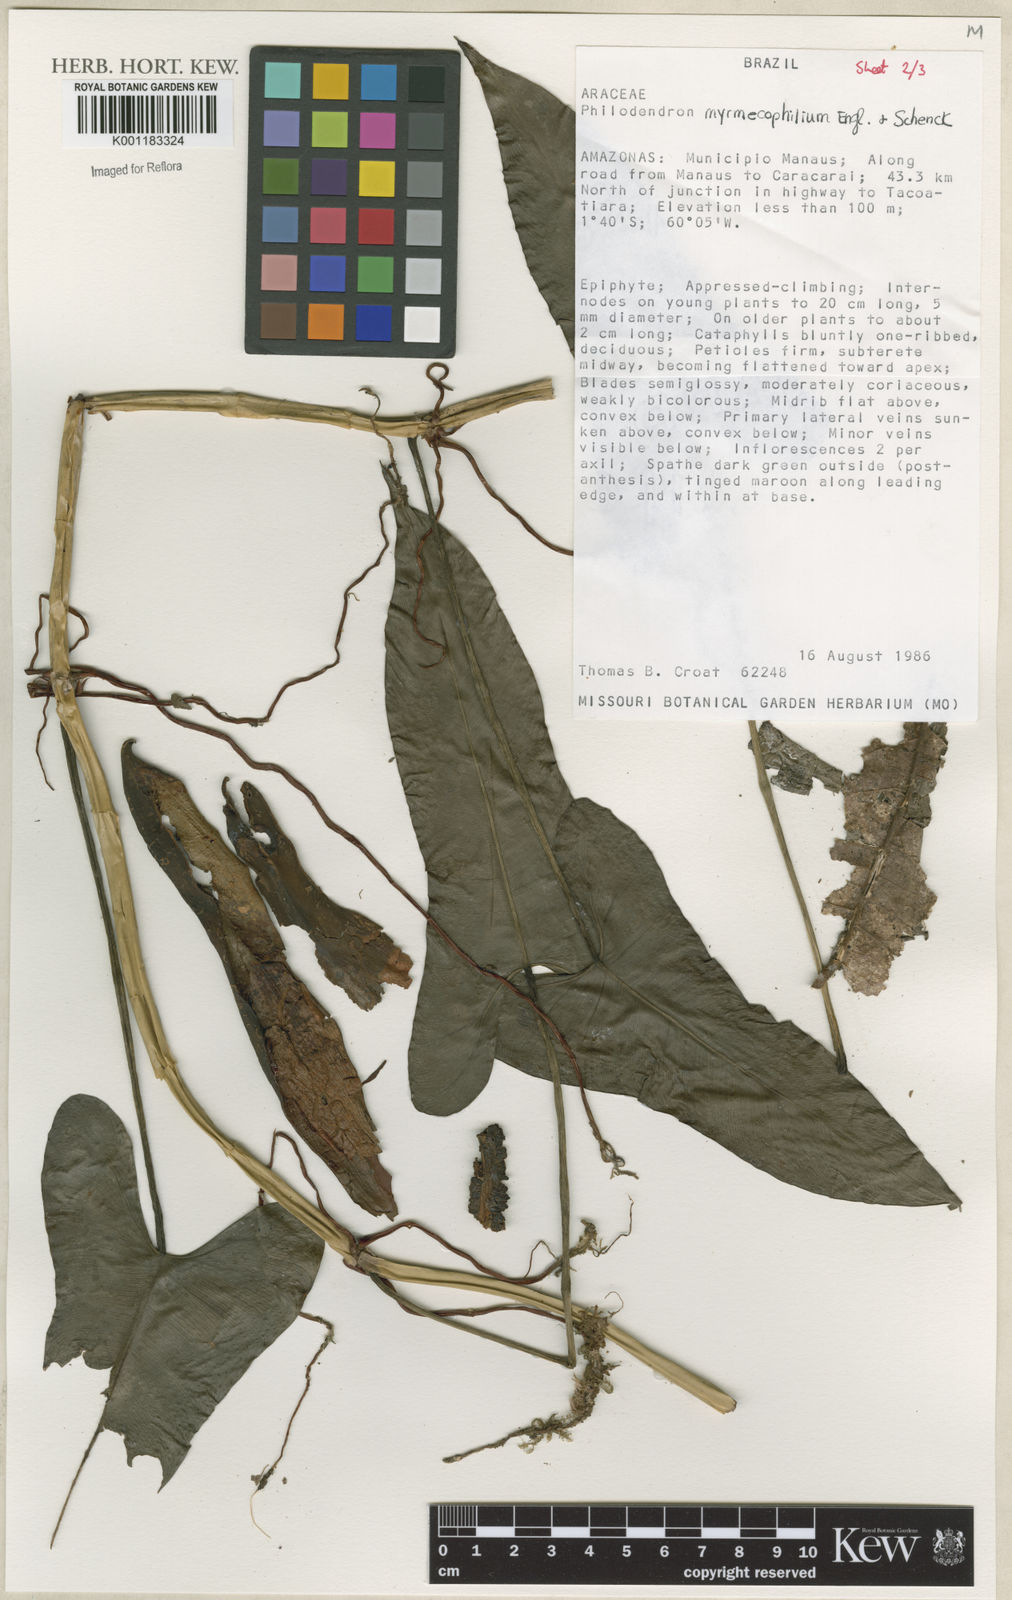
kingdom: Plantae
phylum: Tracheophyta
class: Liliopsida
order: Alismatales
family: Araceae
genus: Philodendron
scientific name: Philodendron myrmecophilum
